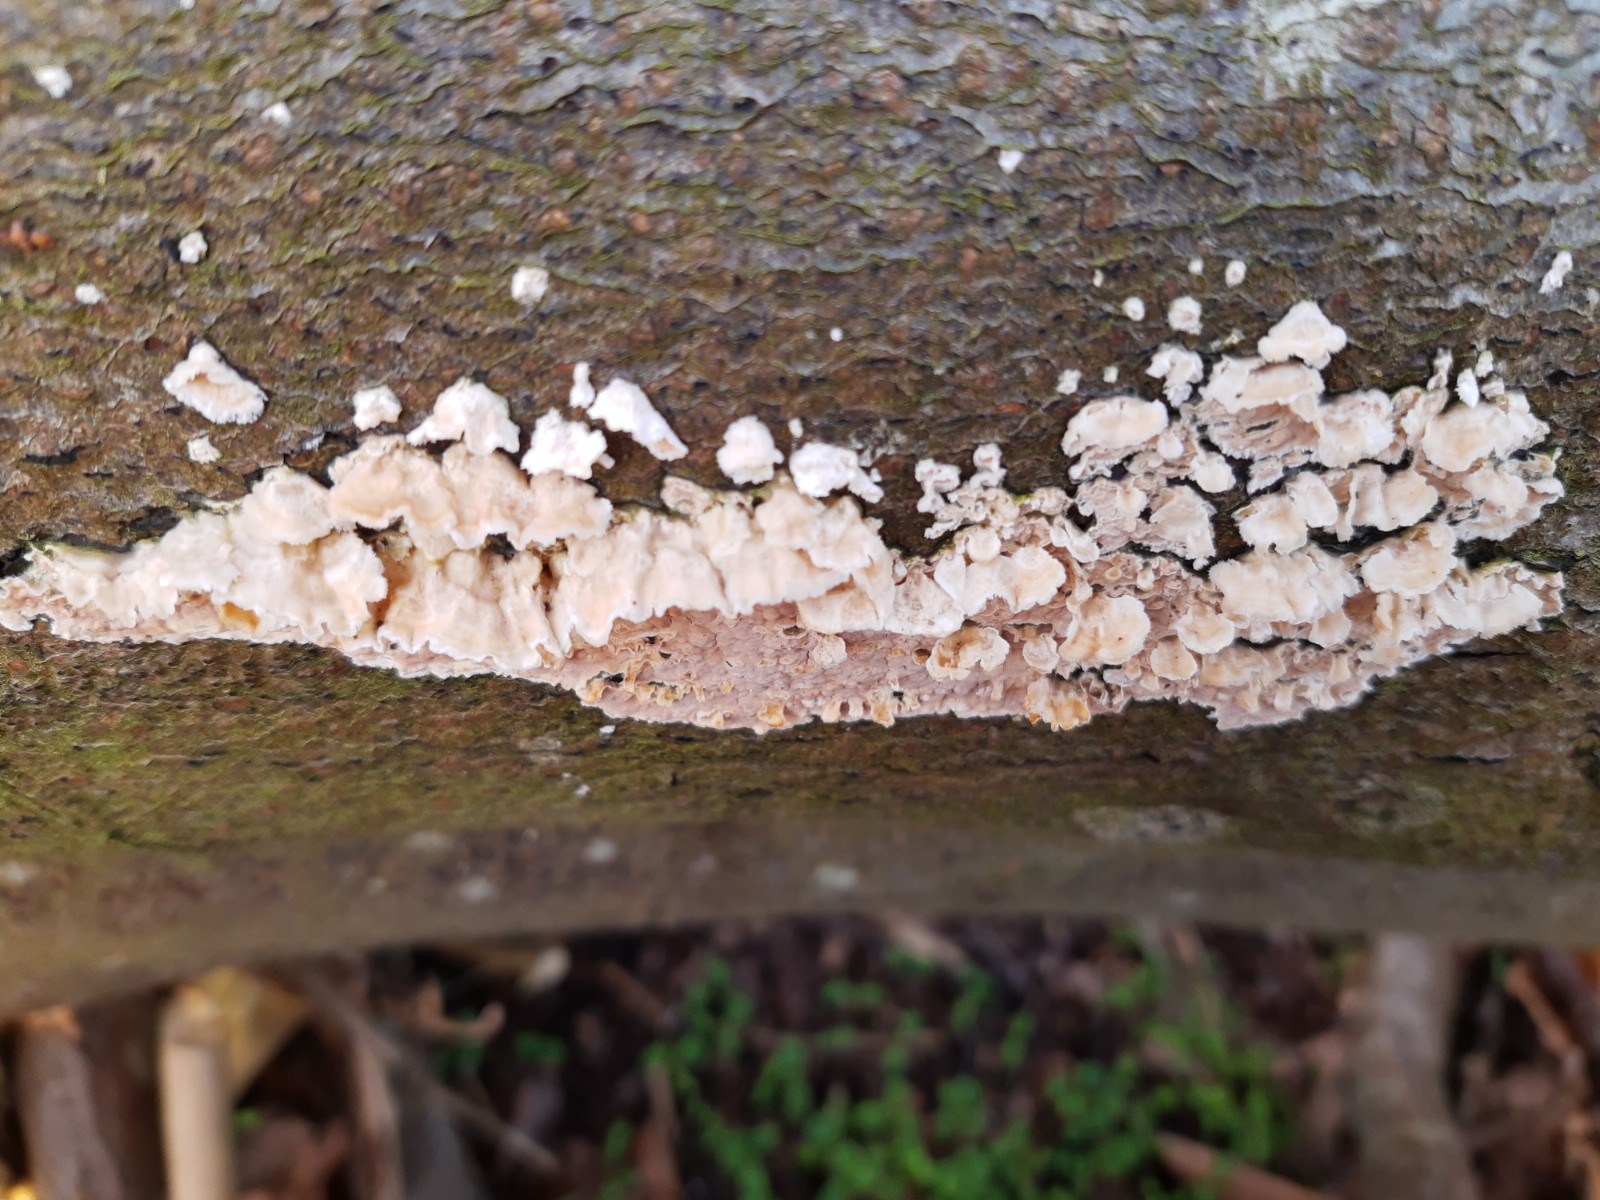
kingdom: Fungi
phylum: Basidiomycota
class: Agaricomycetes
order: Agaricales
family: Physalacriaceae
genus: Cylindrobasidium
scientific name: Cylindrobasidium evolvens
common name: sprækkehinde
